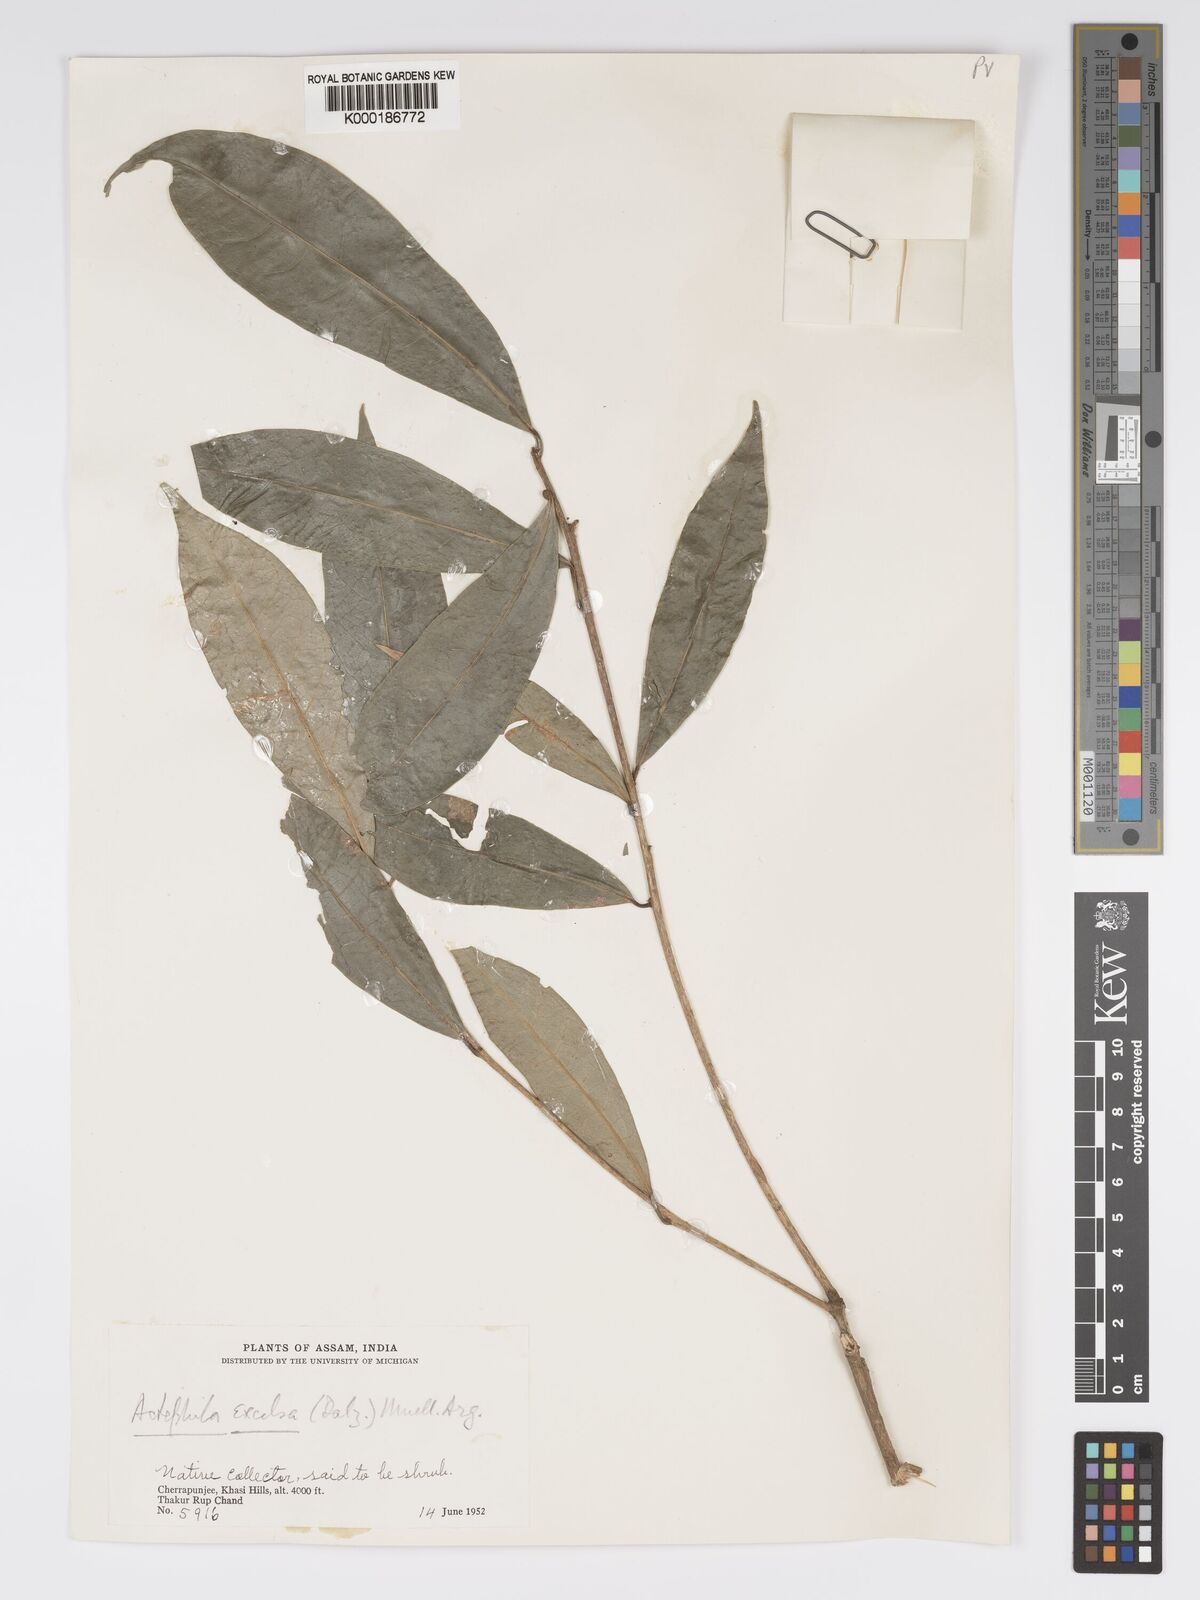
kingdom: Plantae
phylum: Tracheophyta
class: Magnoliopsida
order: Malpighiales
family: Phyllanthaceae
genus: Actephila
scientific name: Actephila excelsa
